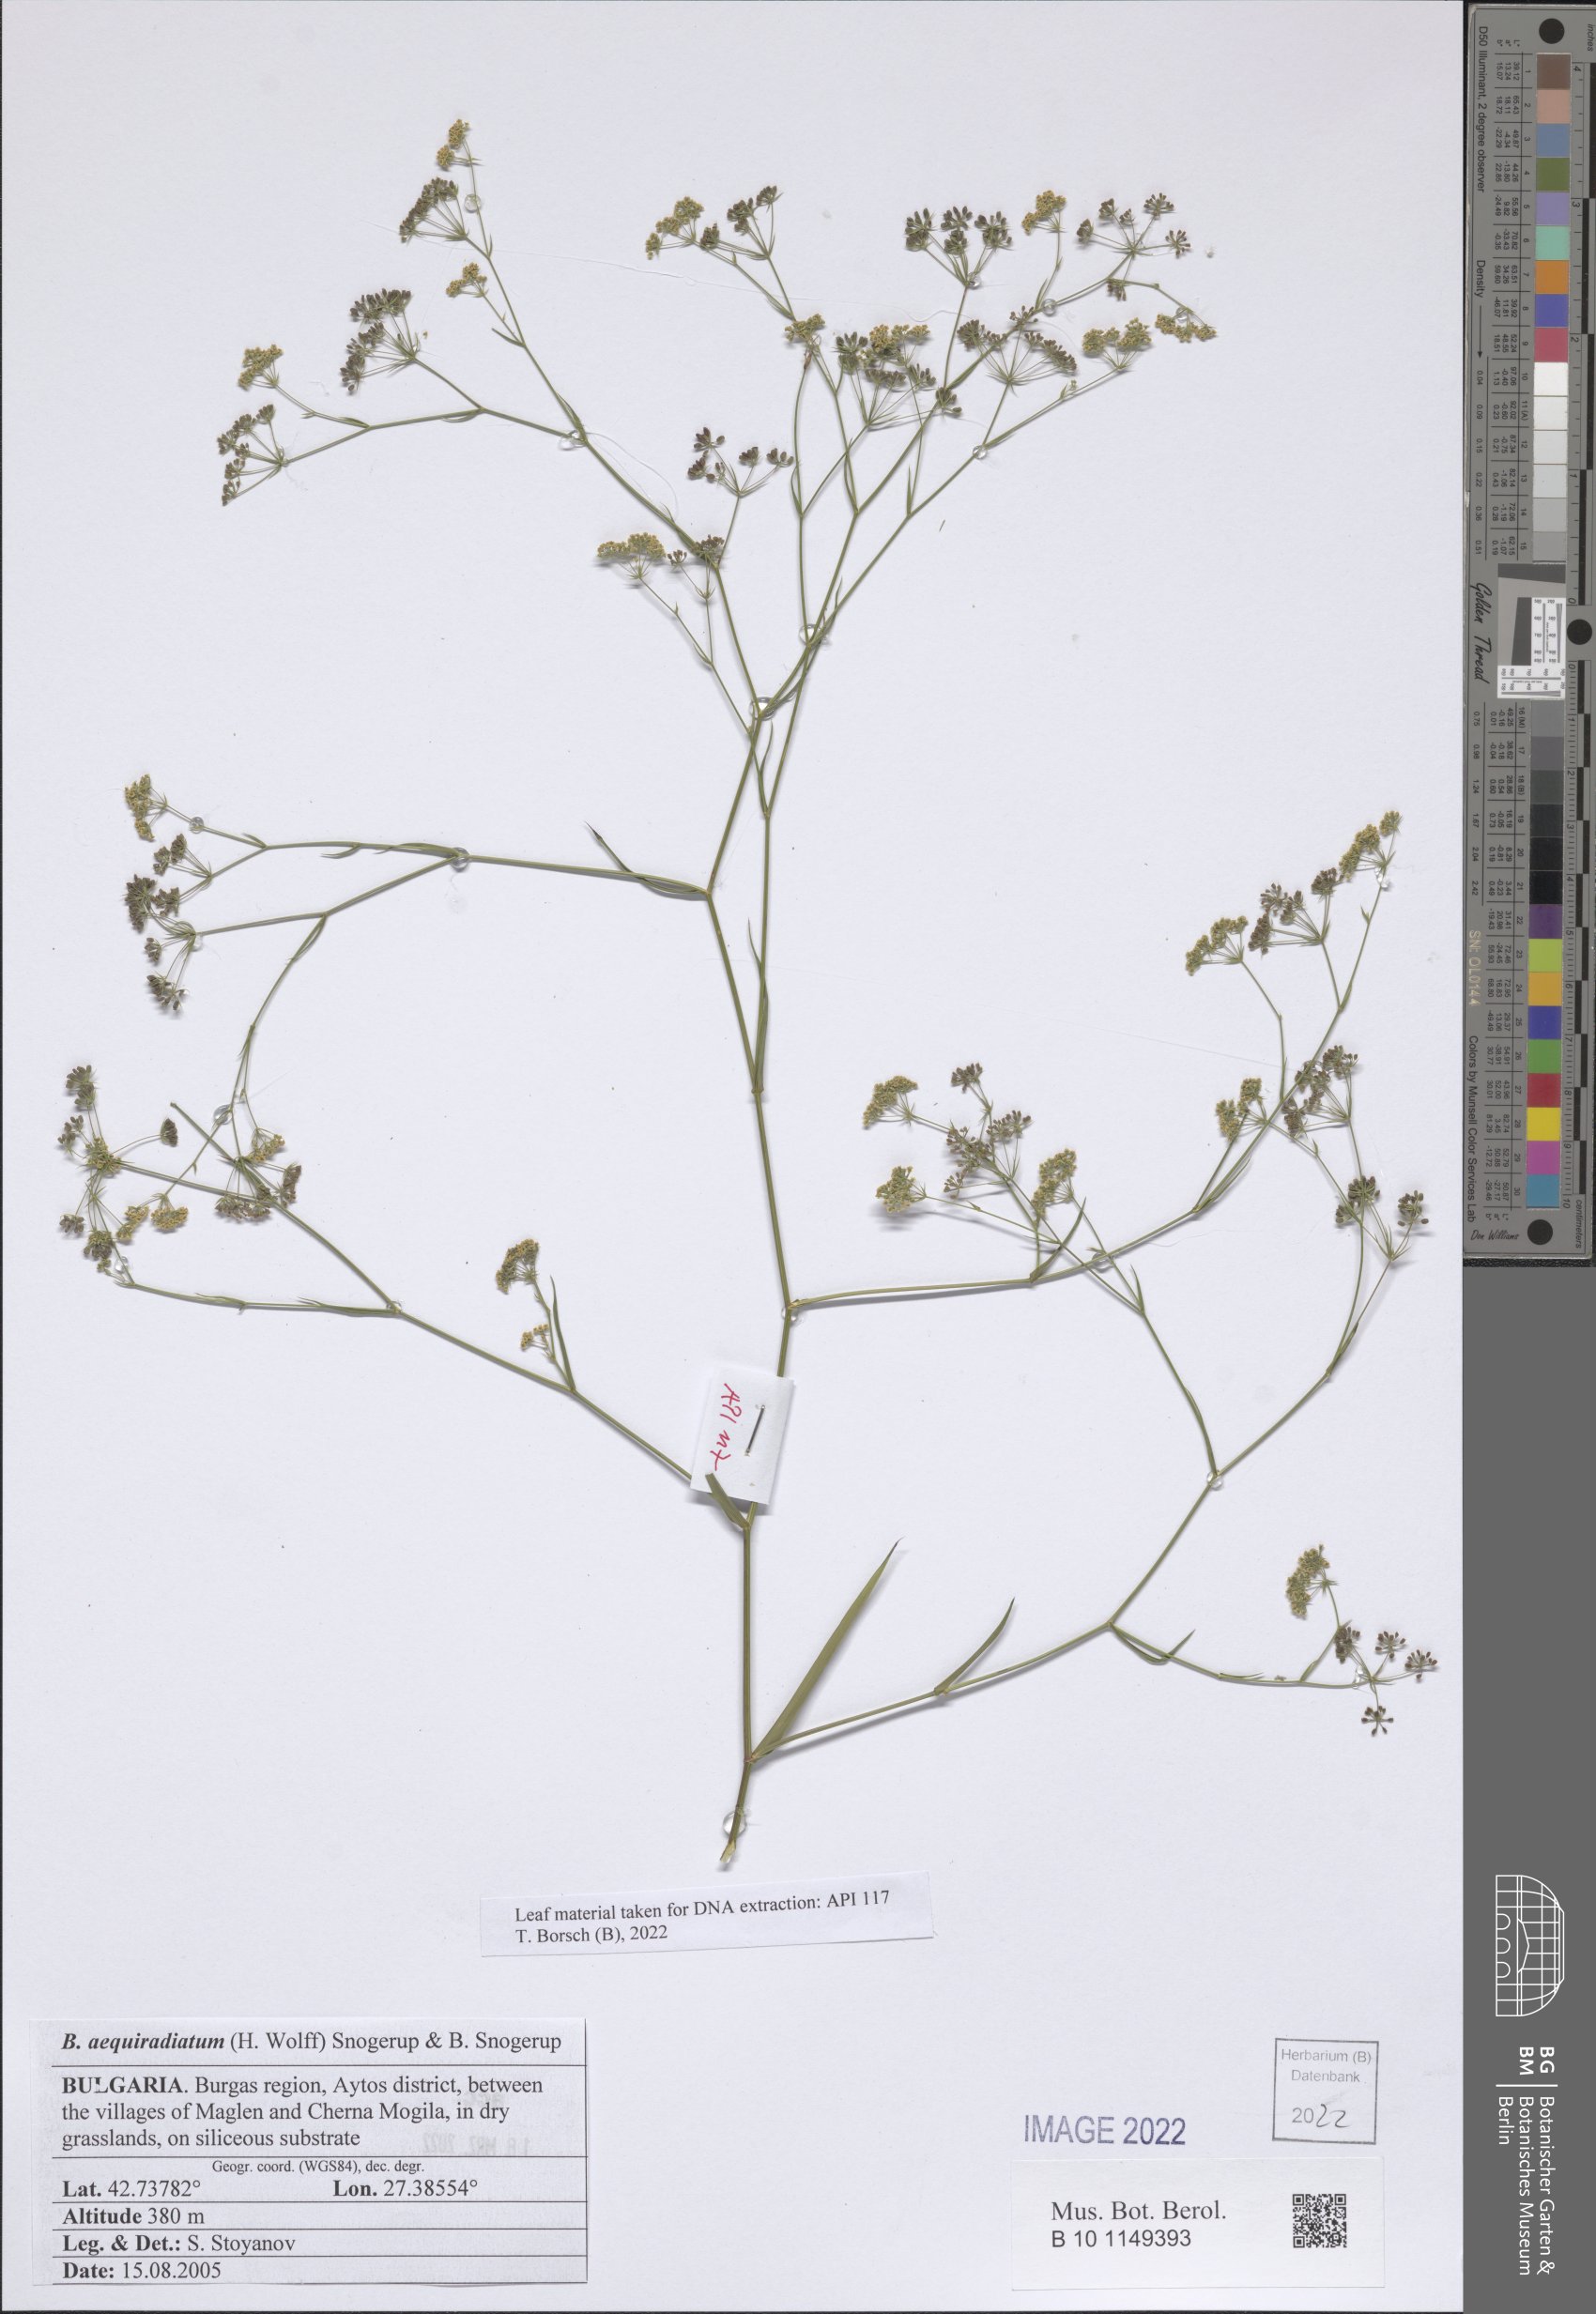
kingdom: Plantae
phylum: Tracheophyta
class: Magnoliopsida
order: Apiales
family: Apiaceae
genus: Bupleurum
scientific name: Bupleurum aequiradiatum
